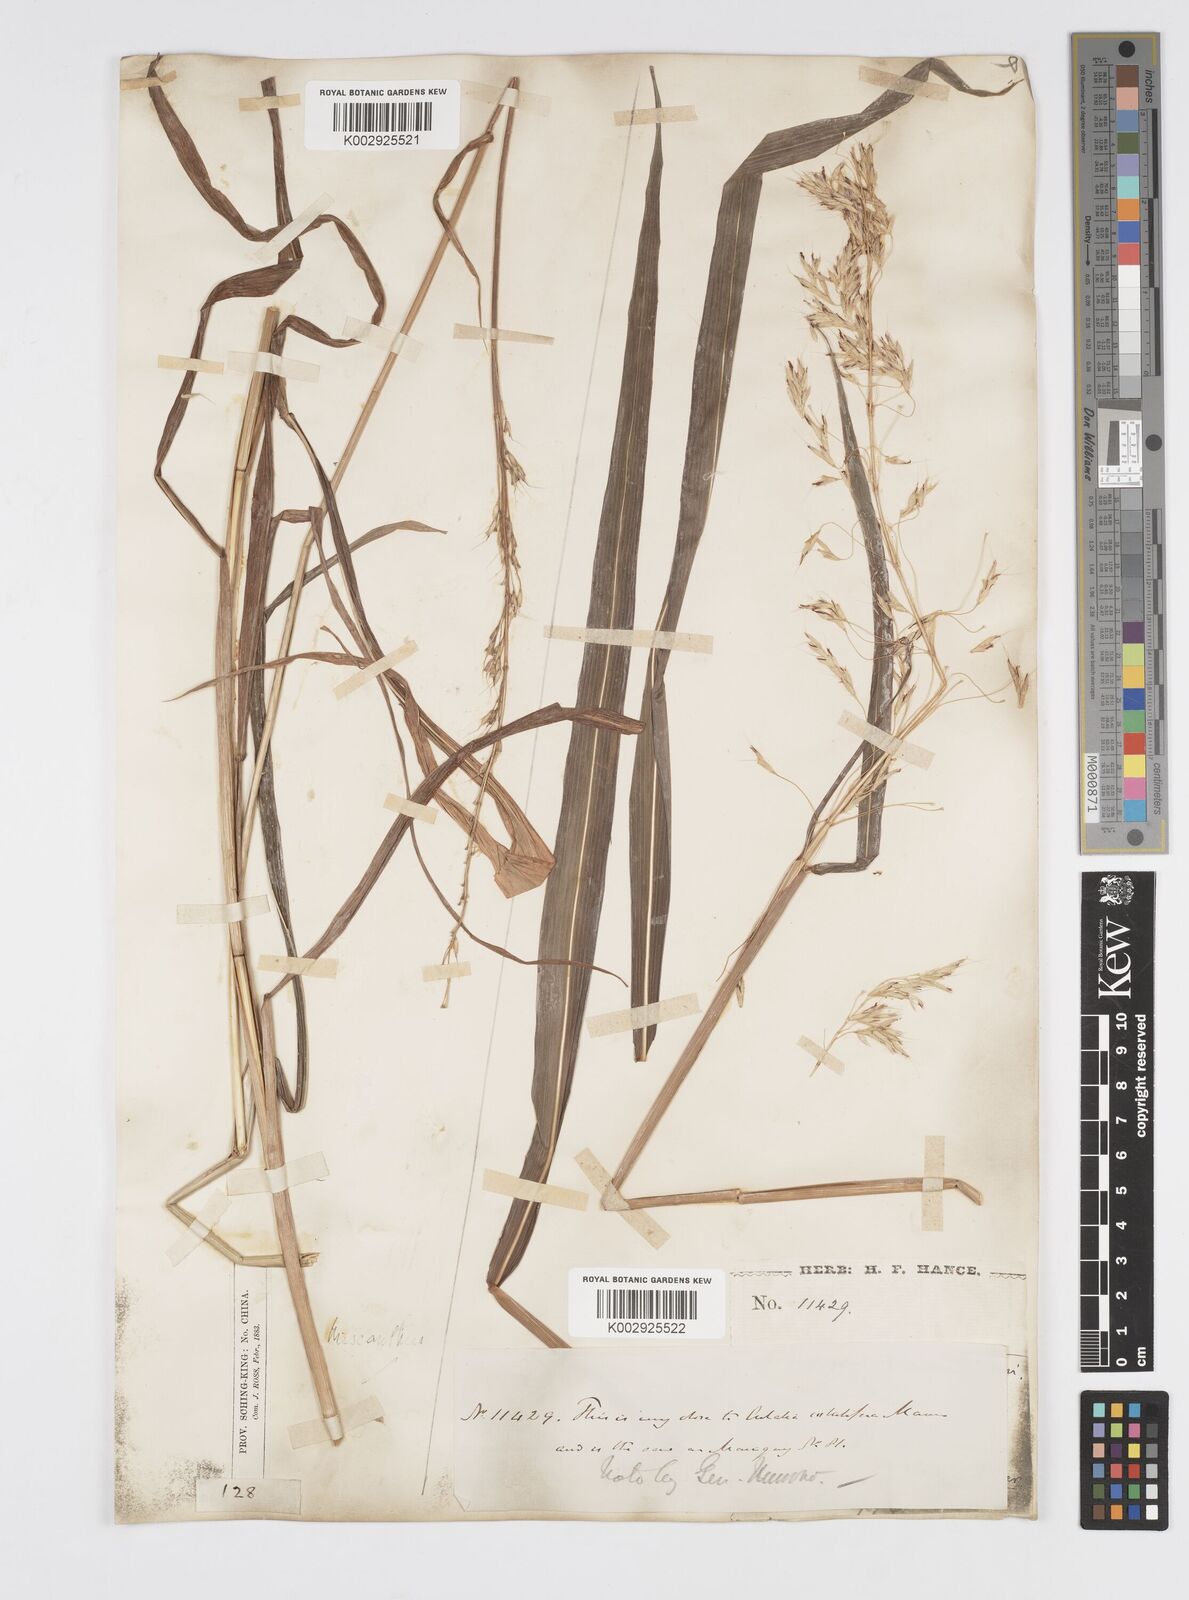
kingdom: Plantae
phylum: Tracheophyta
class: Liliopsida
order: Poales
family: Poaceae
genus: Spodiopogon
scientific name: Spodiopogon sibiricus
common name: Siberian graybeard
